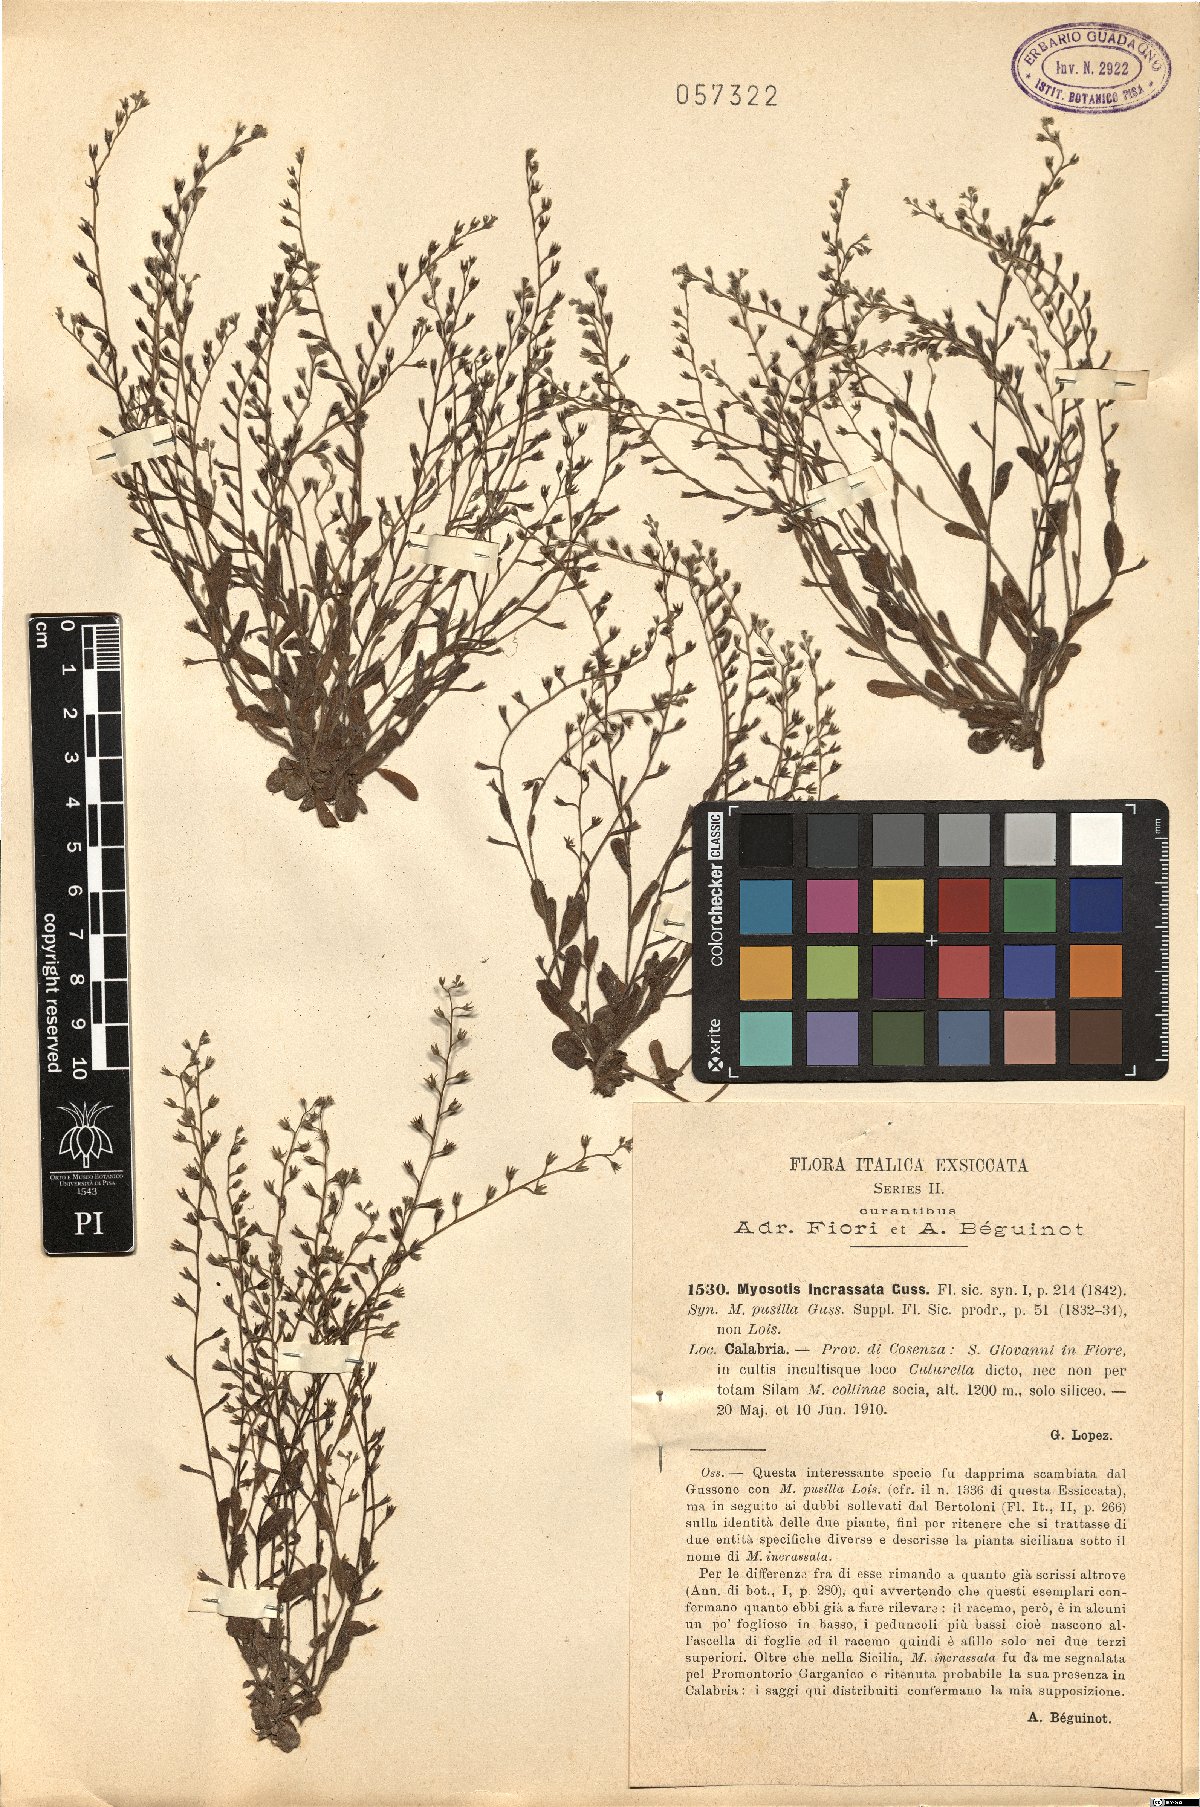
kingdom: Plantae
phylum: Tracheophyta
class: Magnoliopsida
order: Boraginales
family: Boraginaceae
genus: Myosotis
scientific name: Myosotis incrassata
